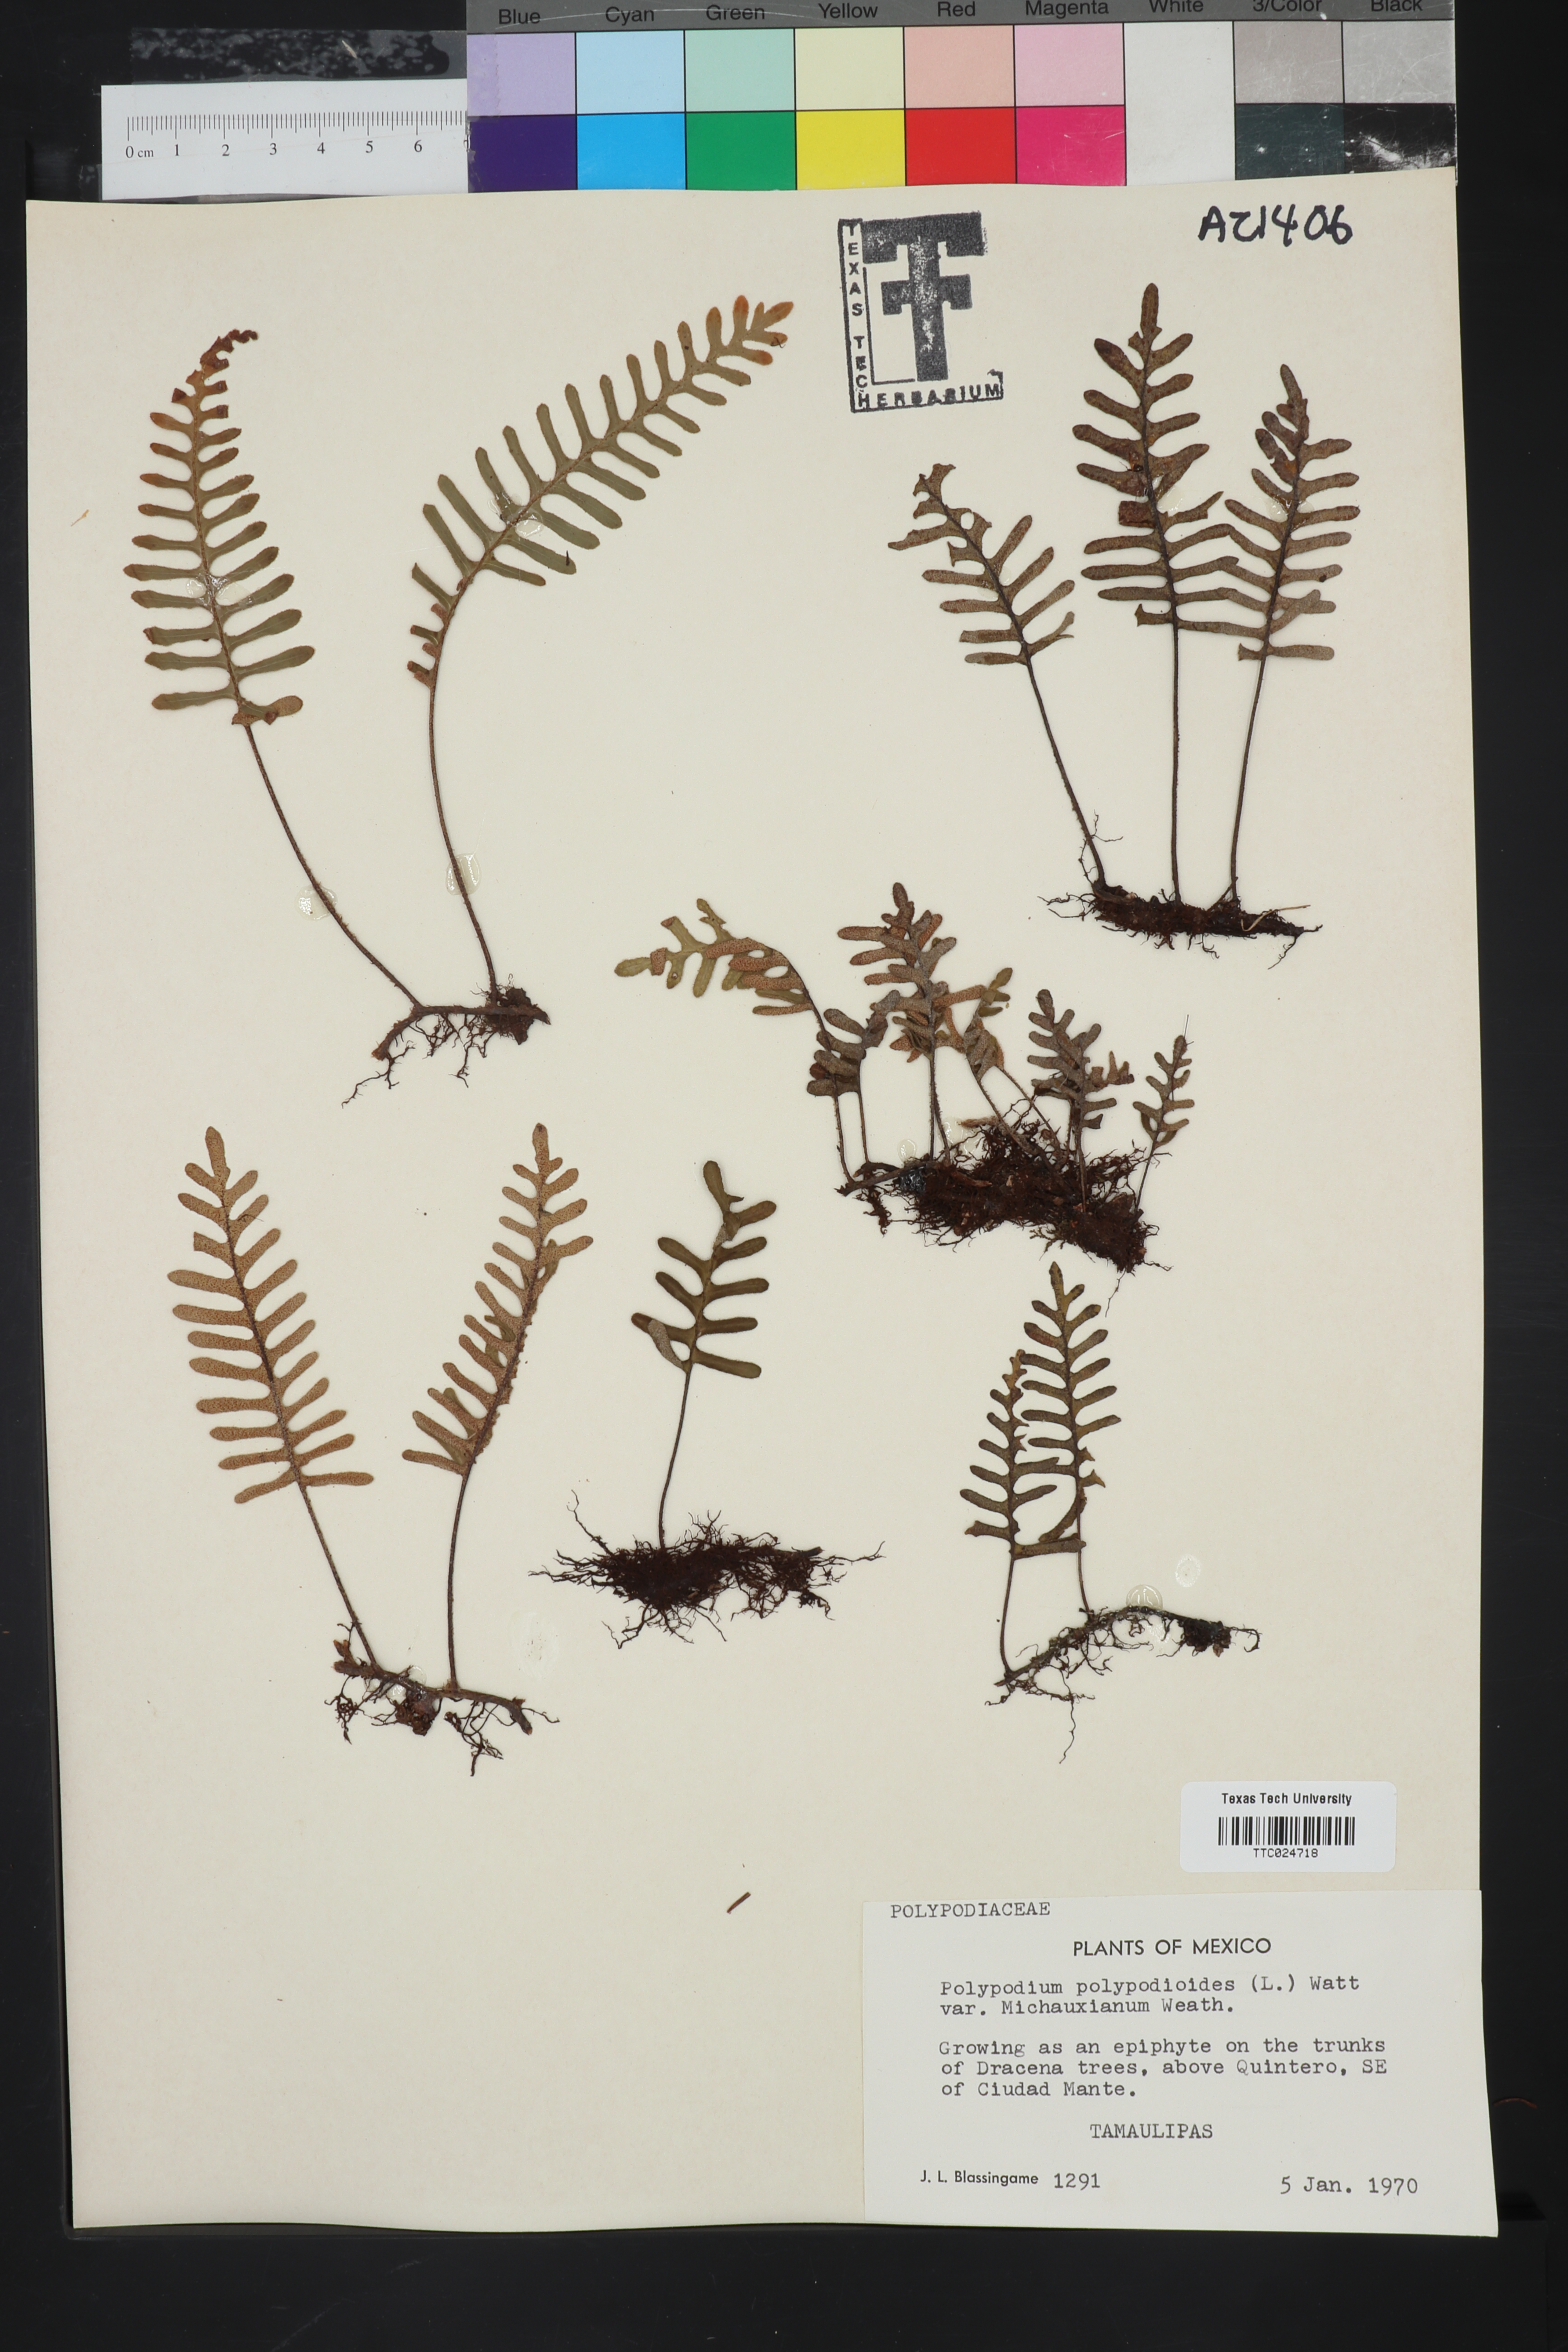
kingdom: Plantae
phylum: Tracheophyta
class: Polypodiopsida
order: Polypodiales
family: Polypodiaceae
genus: Pleopeltis
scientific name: Pleopeltis michauxiana
